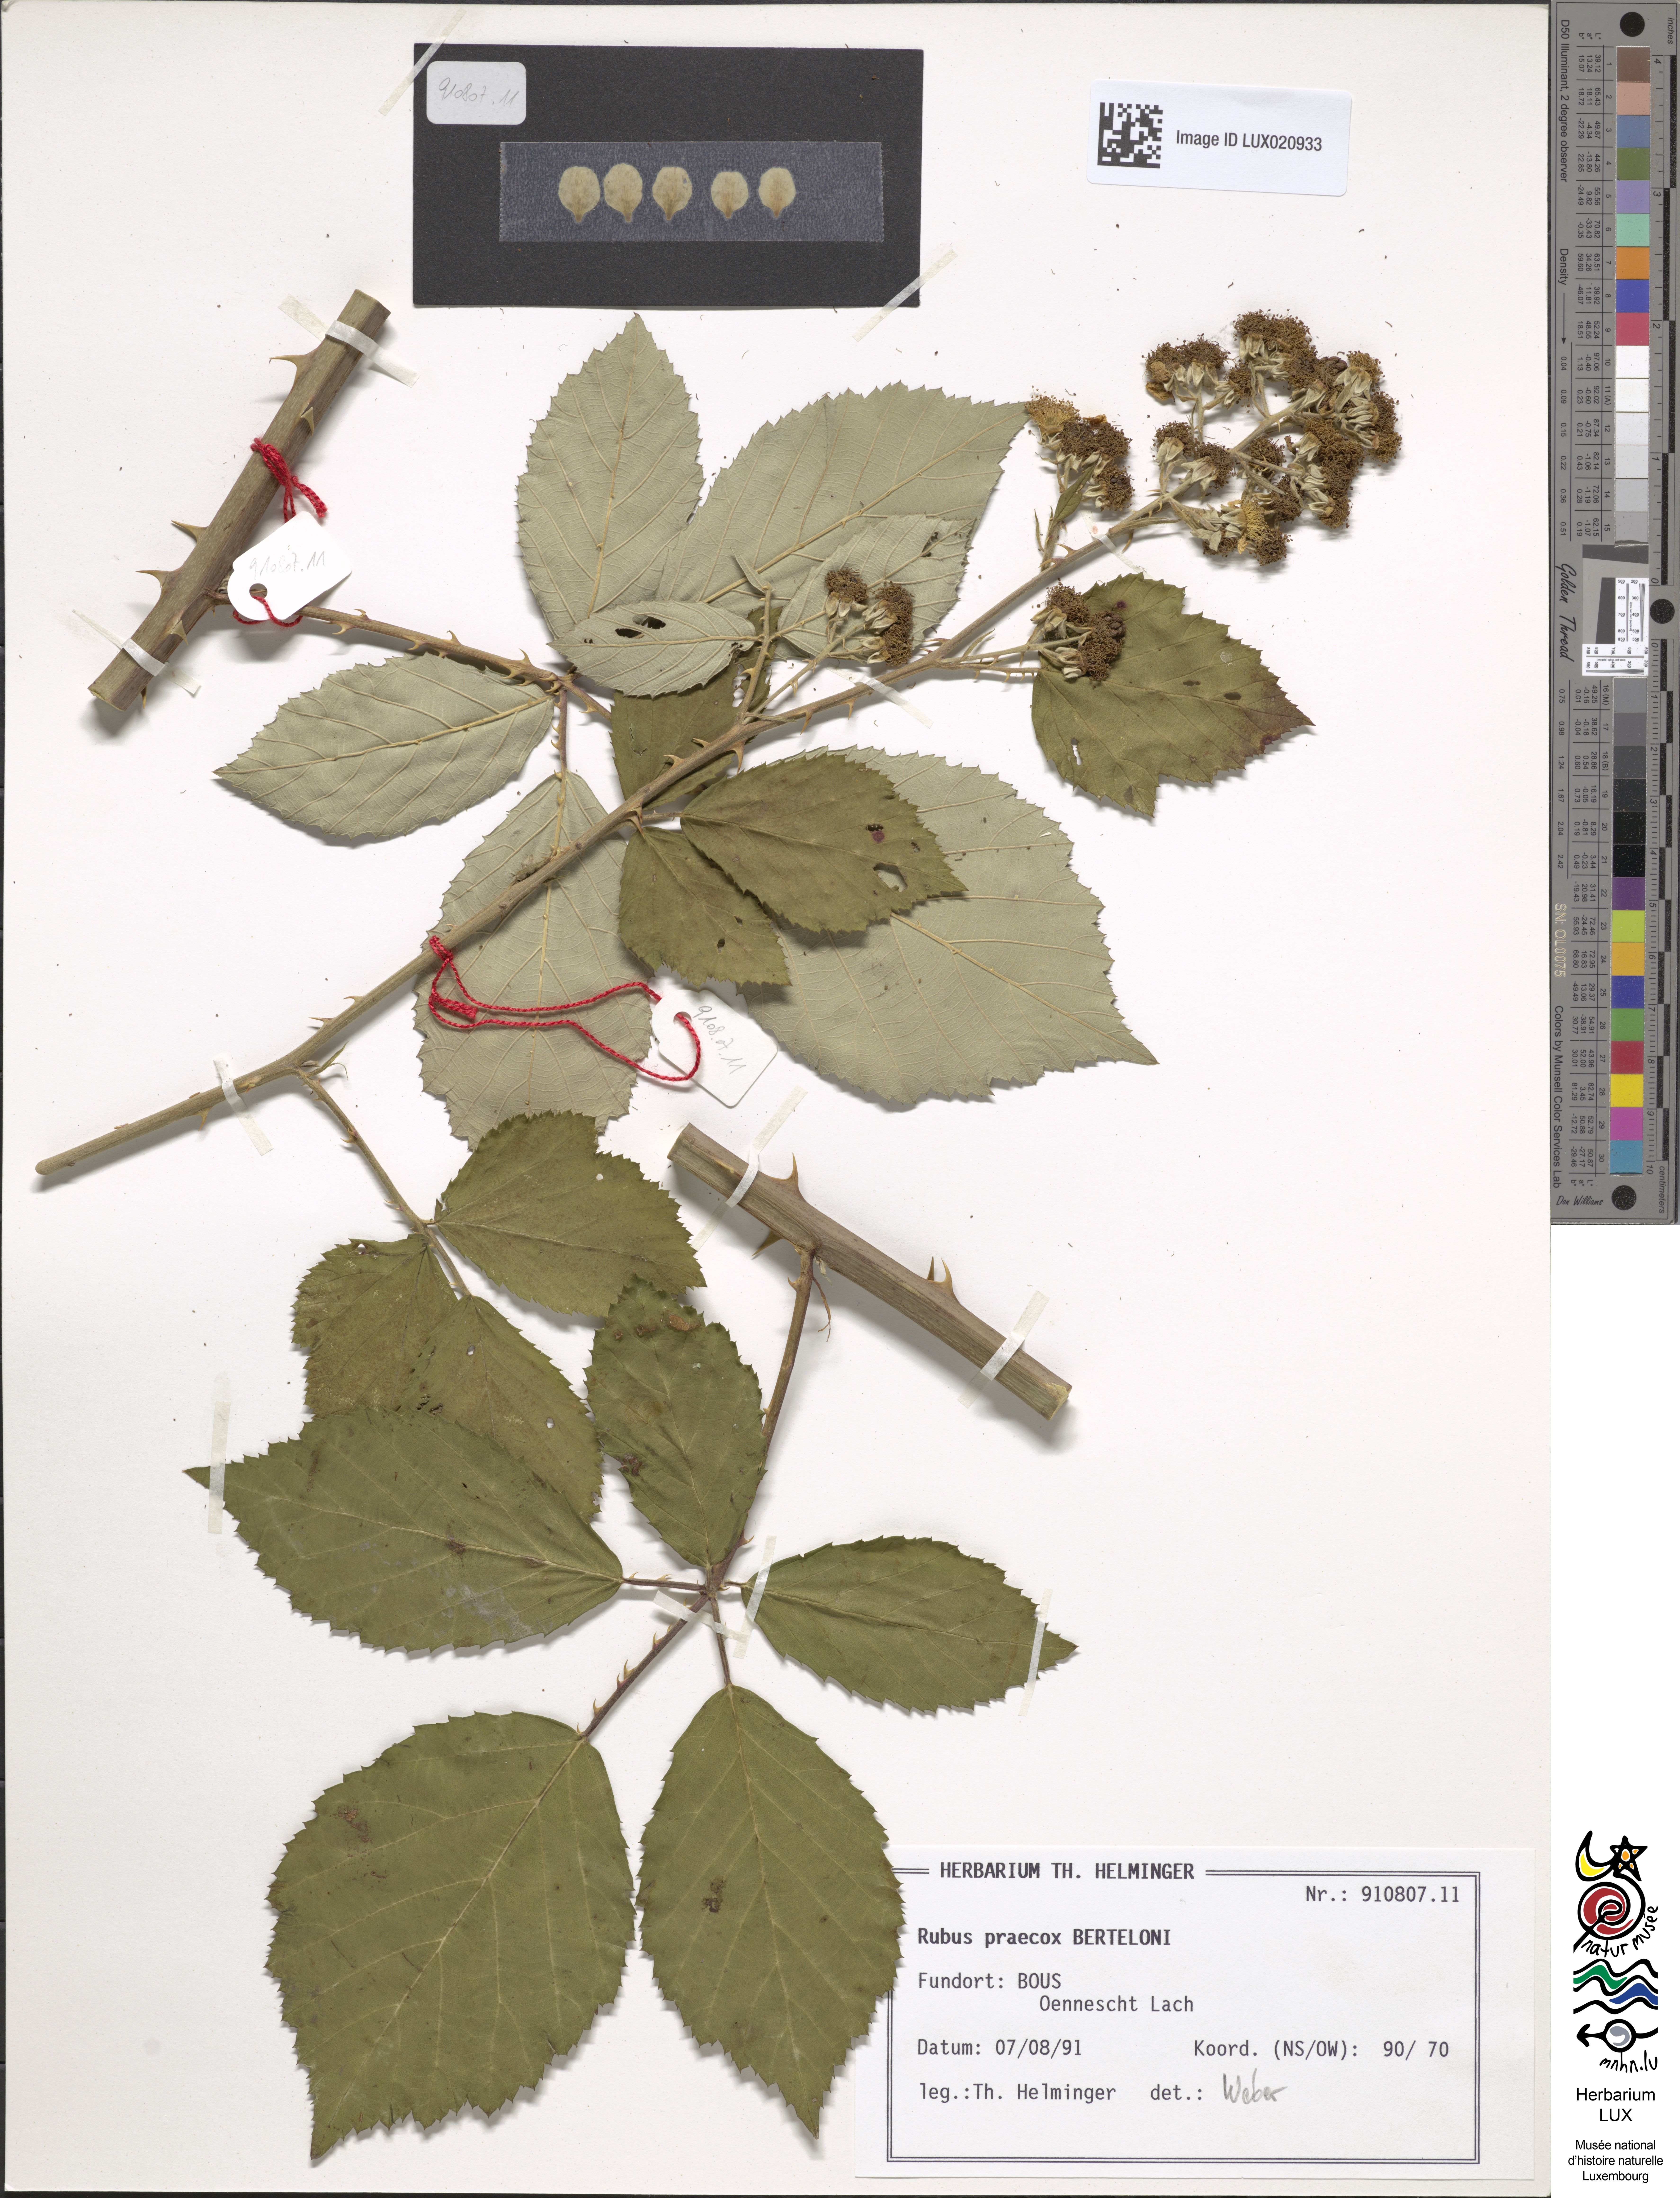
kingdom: Plantae
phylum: Tracheophyta
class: Magnoliopsida
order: Rosales
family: Rosaceae
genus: Rubus
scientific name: Rubus praecox
